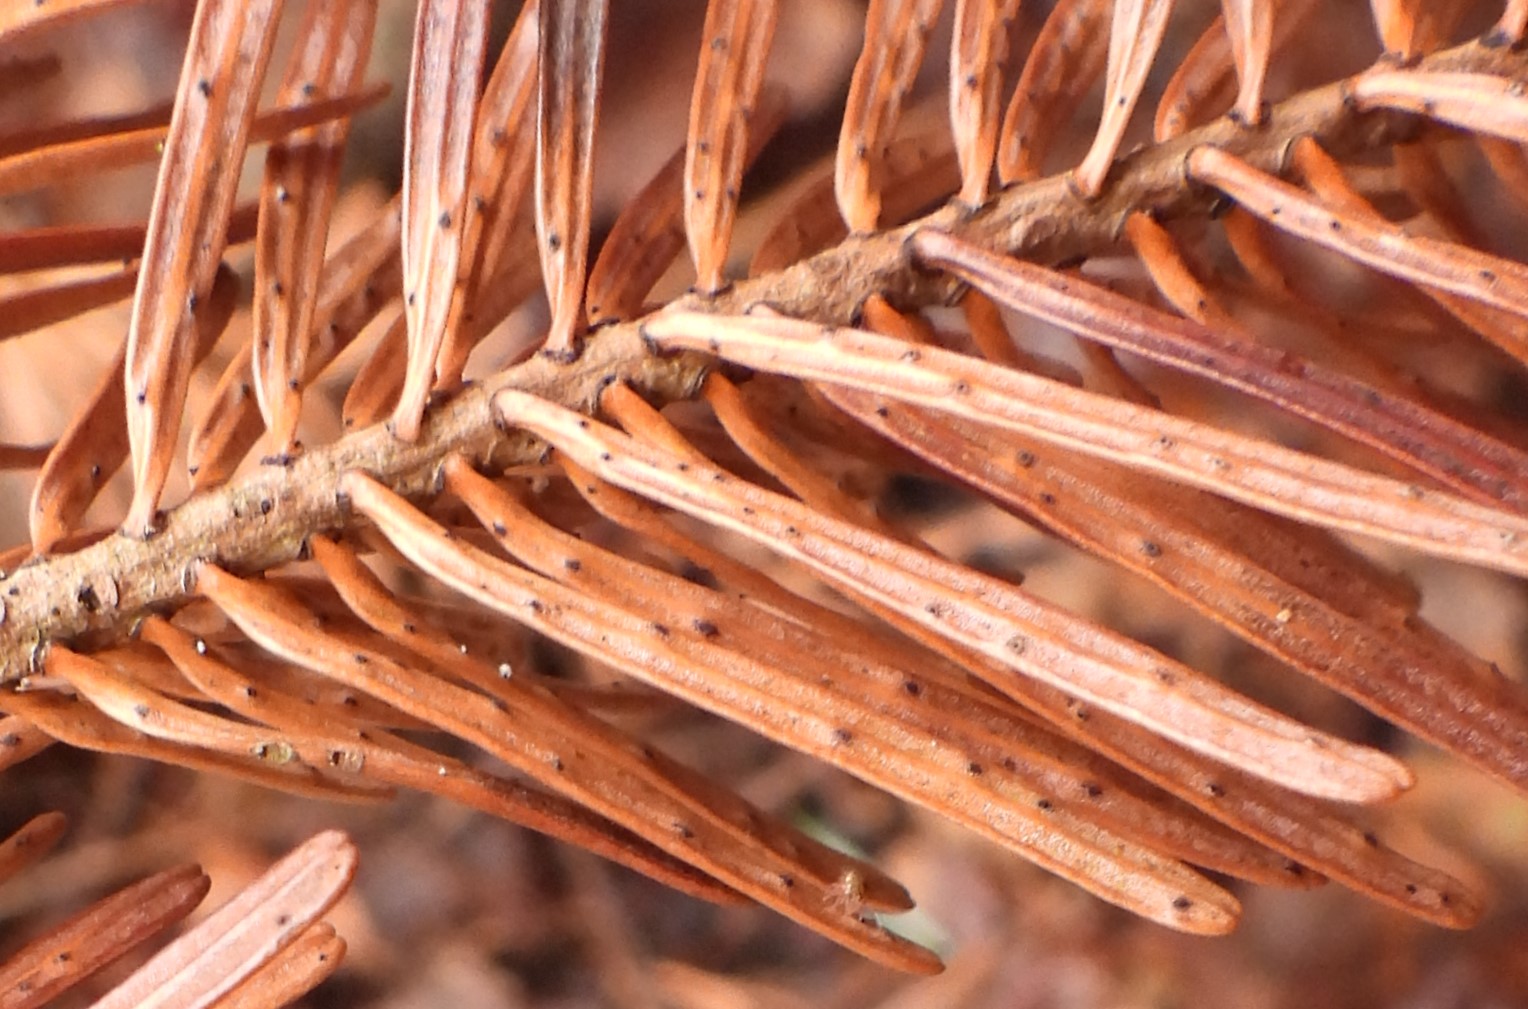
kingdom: Fungi
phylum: Ascomycota
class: Sordariomycetes
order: Diaporthales
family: Valsaceae
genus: Cytospora
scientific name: Cytospora pinastri
